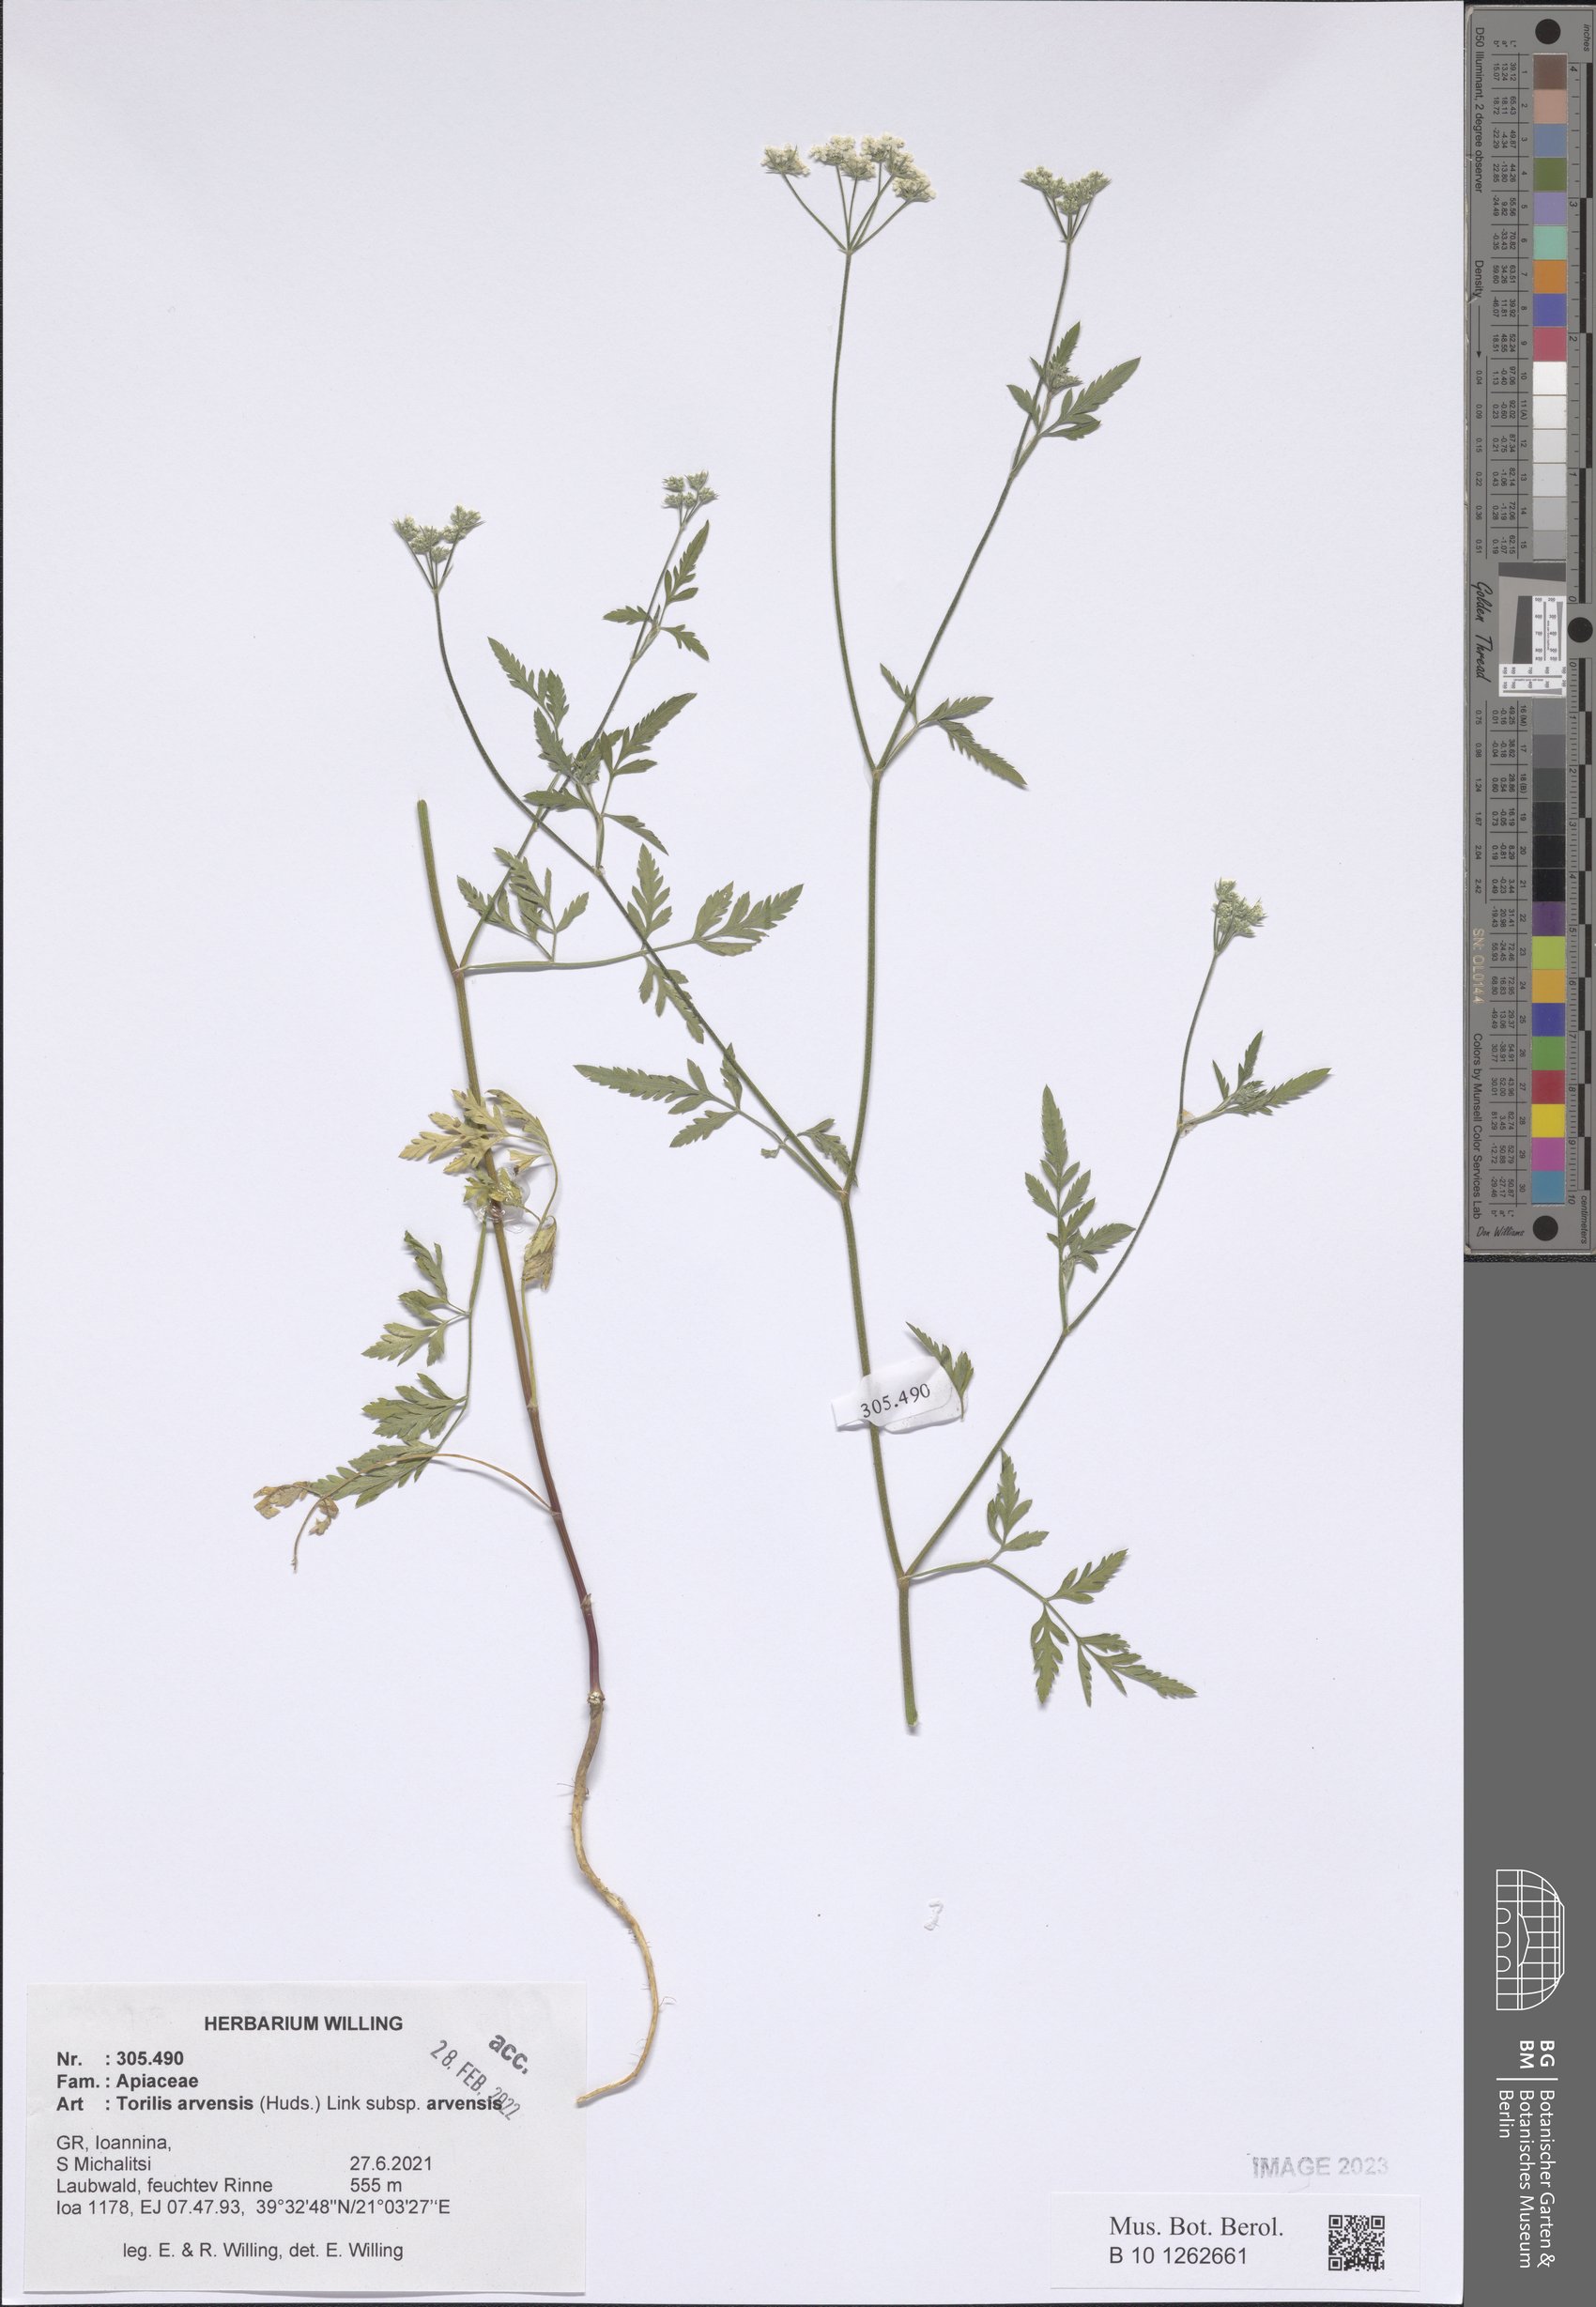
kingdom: Plantae
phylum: Tracheophyta
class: Magnoliopsida
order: Apiales
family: Apiaceae
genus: Torilis
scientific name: Torilis arvensis
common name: Spreading hedge-parsley
